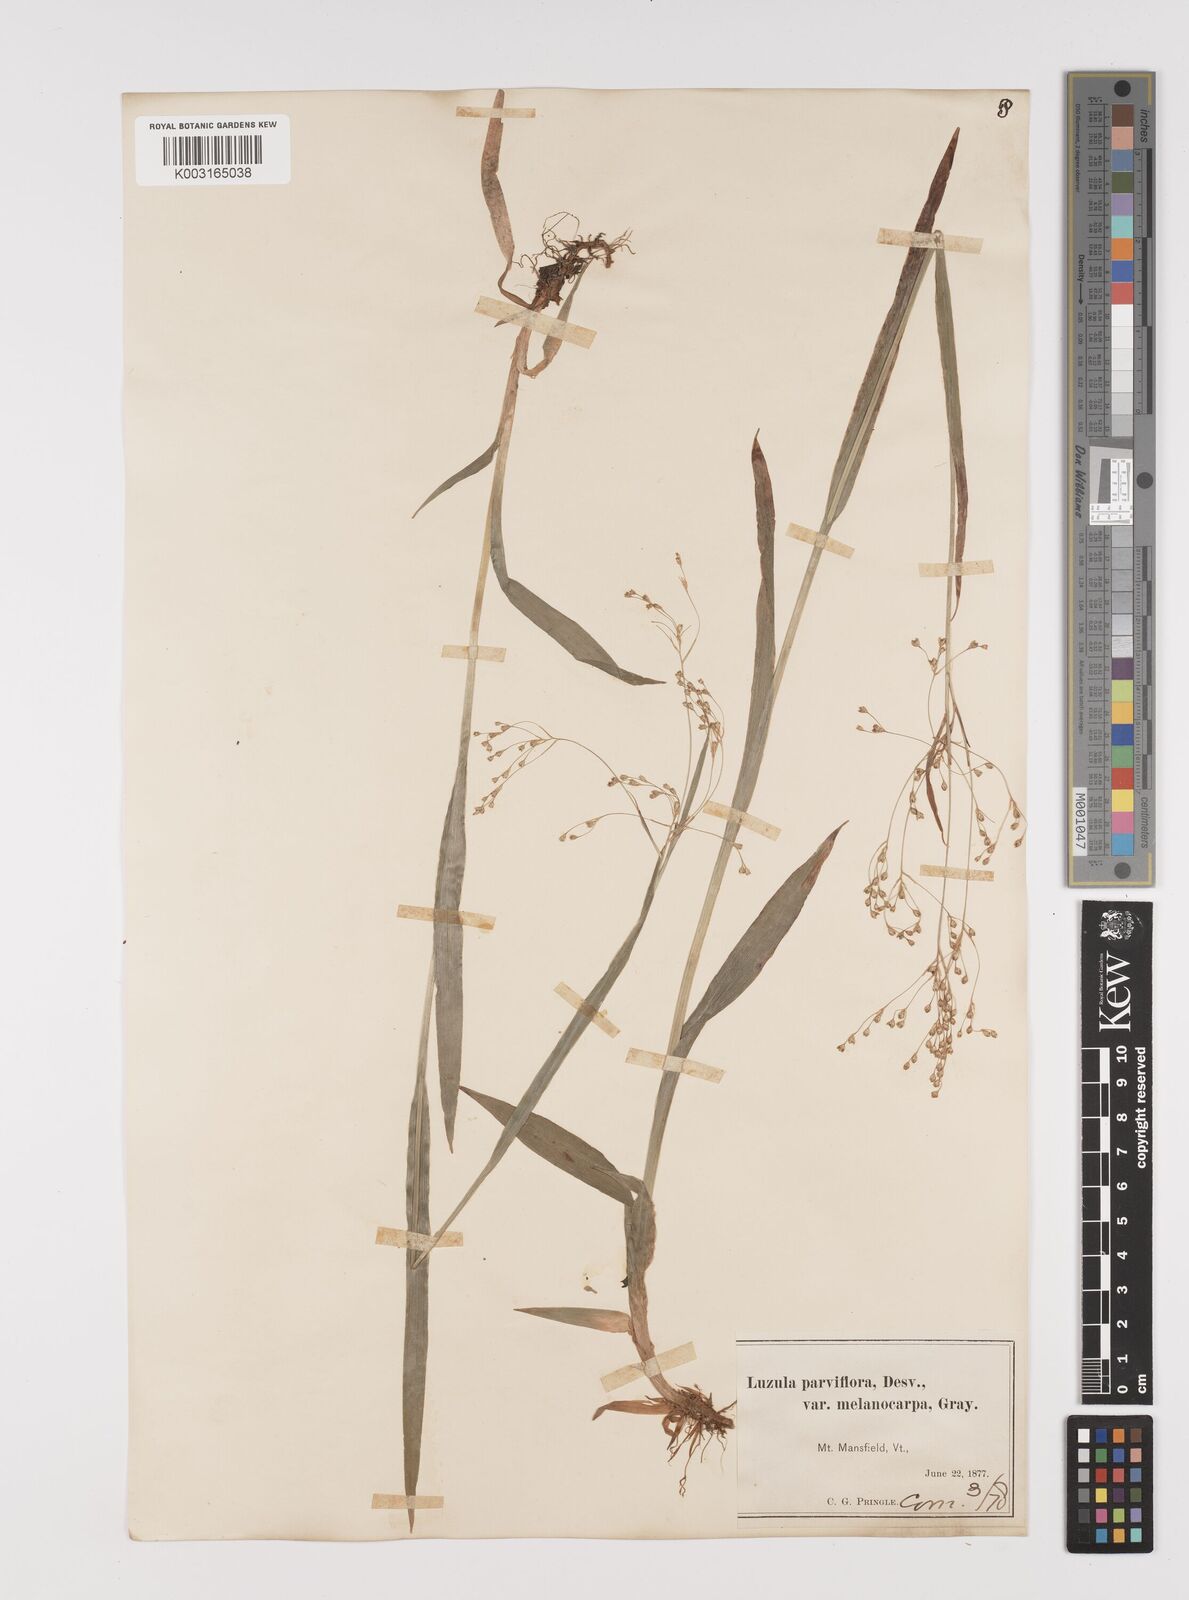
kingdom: Plantae
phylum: Tracheophyta
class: Liliopsida
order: Poales
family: Juncaceae
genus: Luzula
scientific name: Luzula parviflora
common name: Millet woodrush
